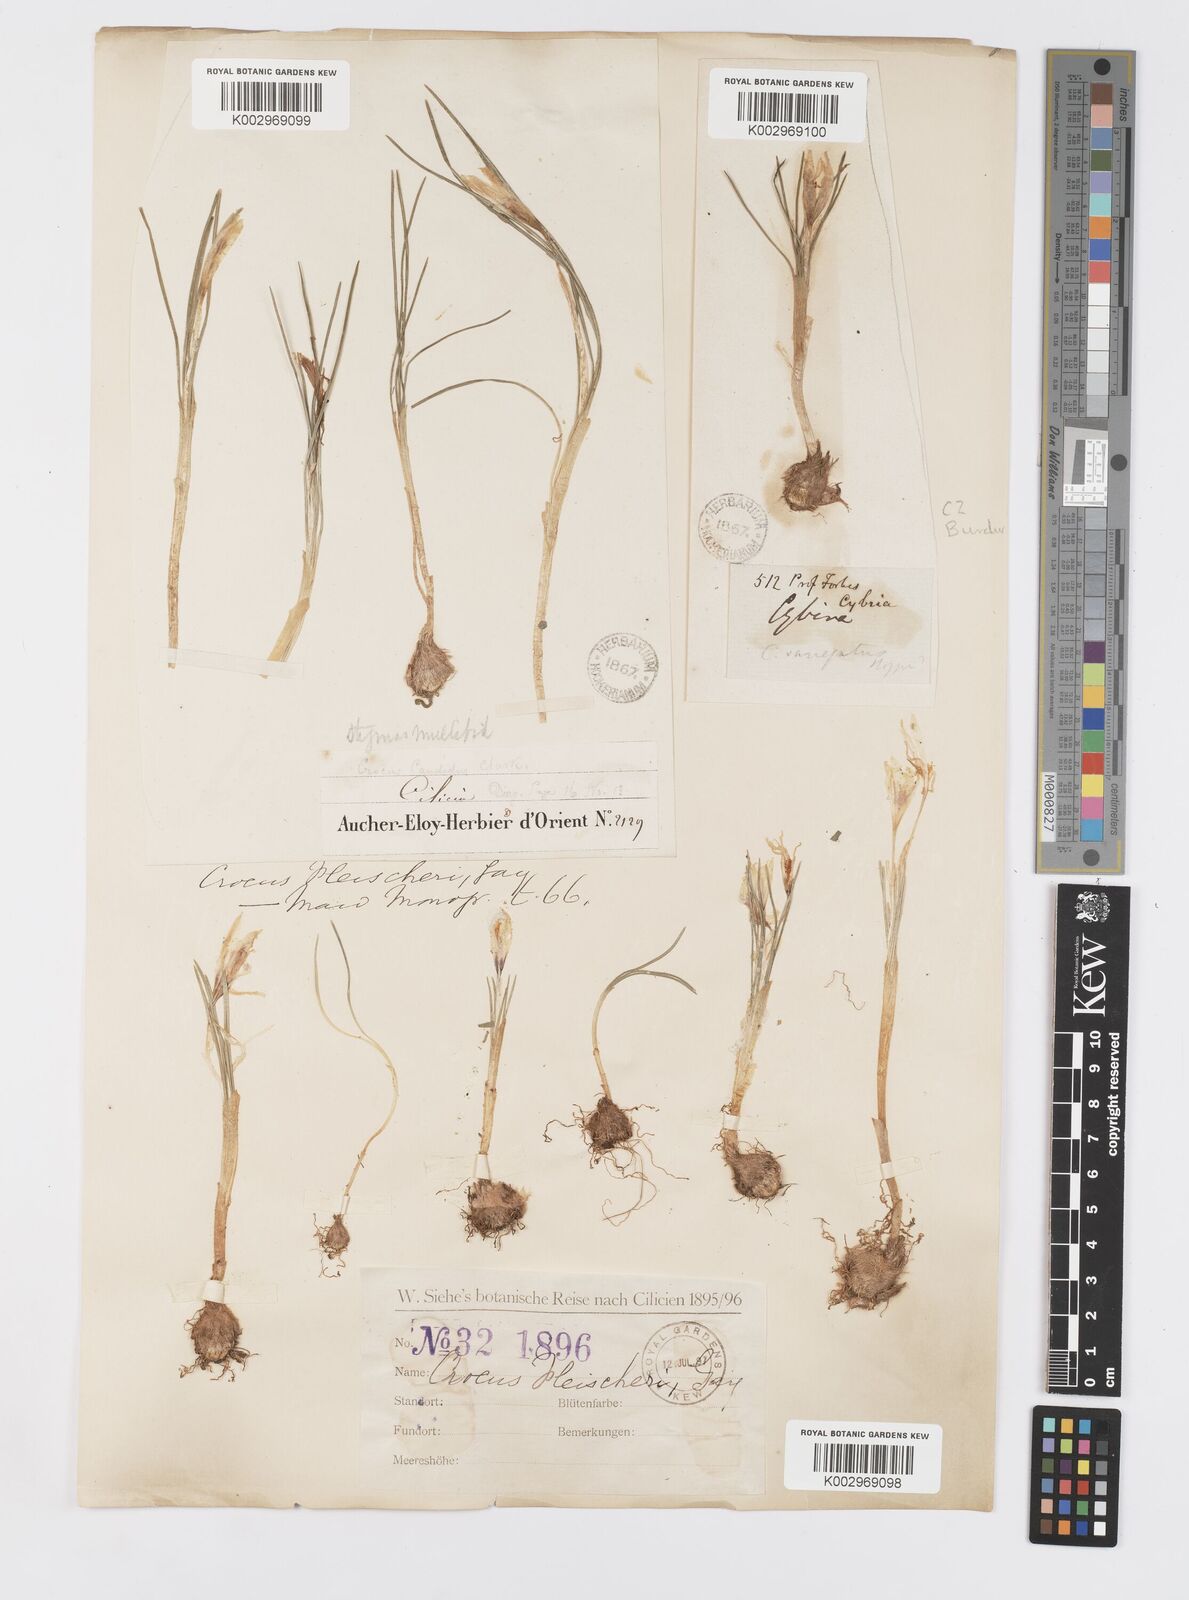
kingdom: Plantae
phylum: Tracheophyta
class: Liliopsida
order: Asparagales
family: Iridaceae
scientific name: Iridaceae
